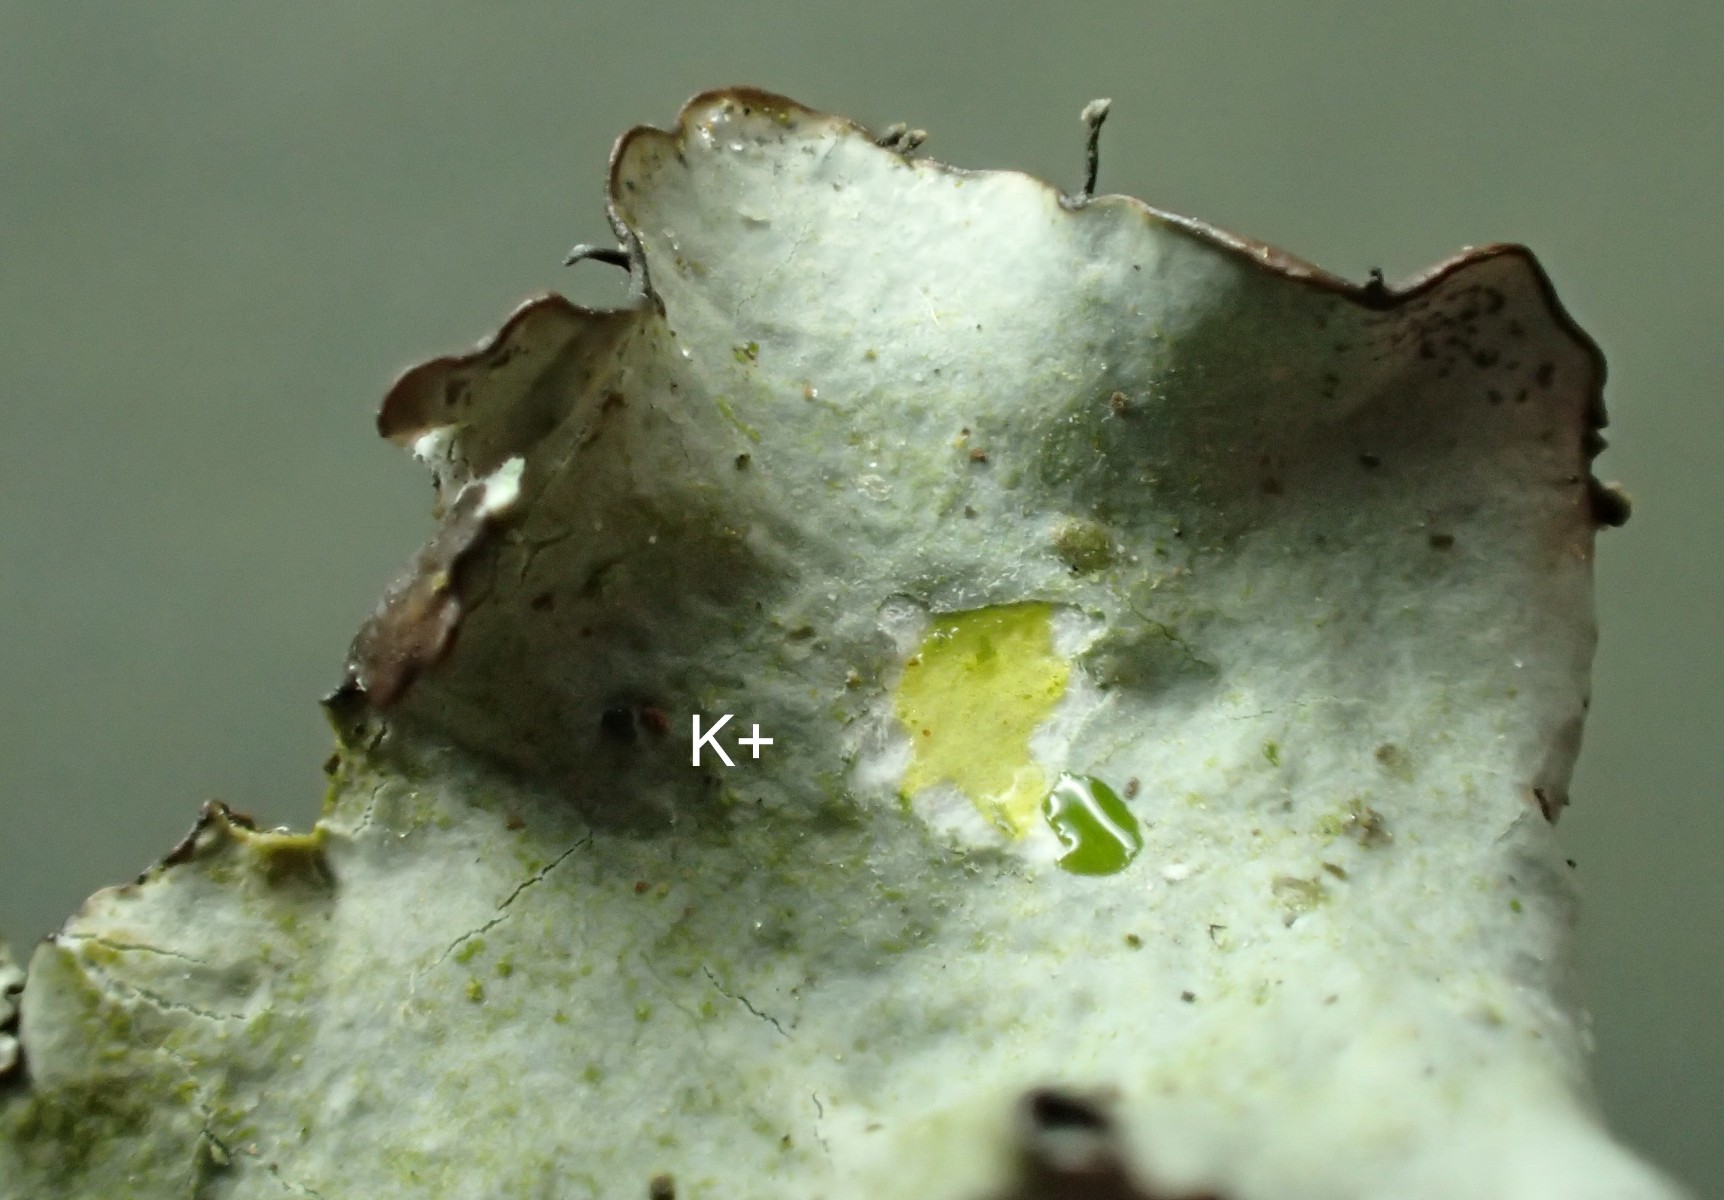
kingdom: Fungi
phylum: Ascomycota
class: Lecanoromycetes
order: Lecanorales
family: Parmeliaceae
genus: Parmotrema
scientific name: Parmotrema perlatum
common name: trådet skållav
